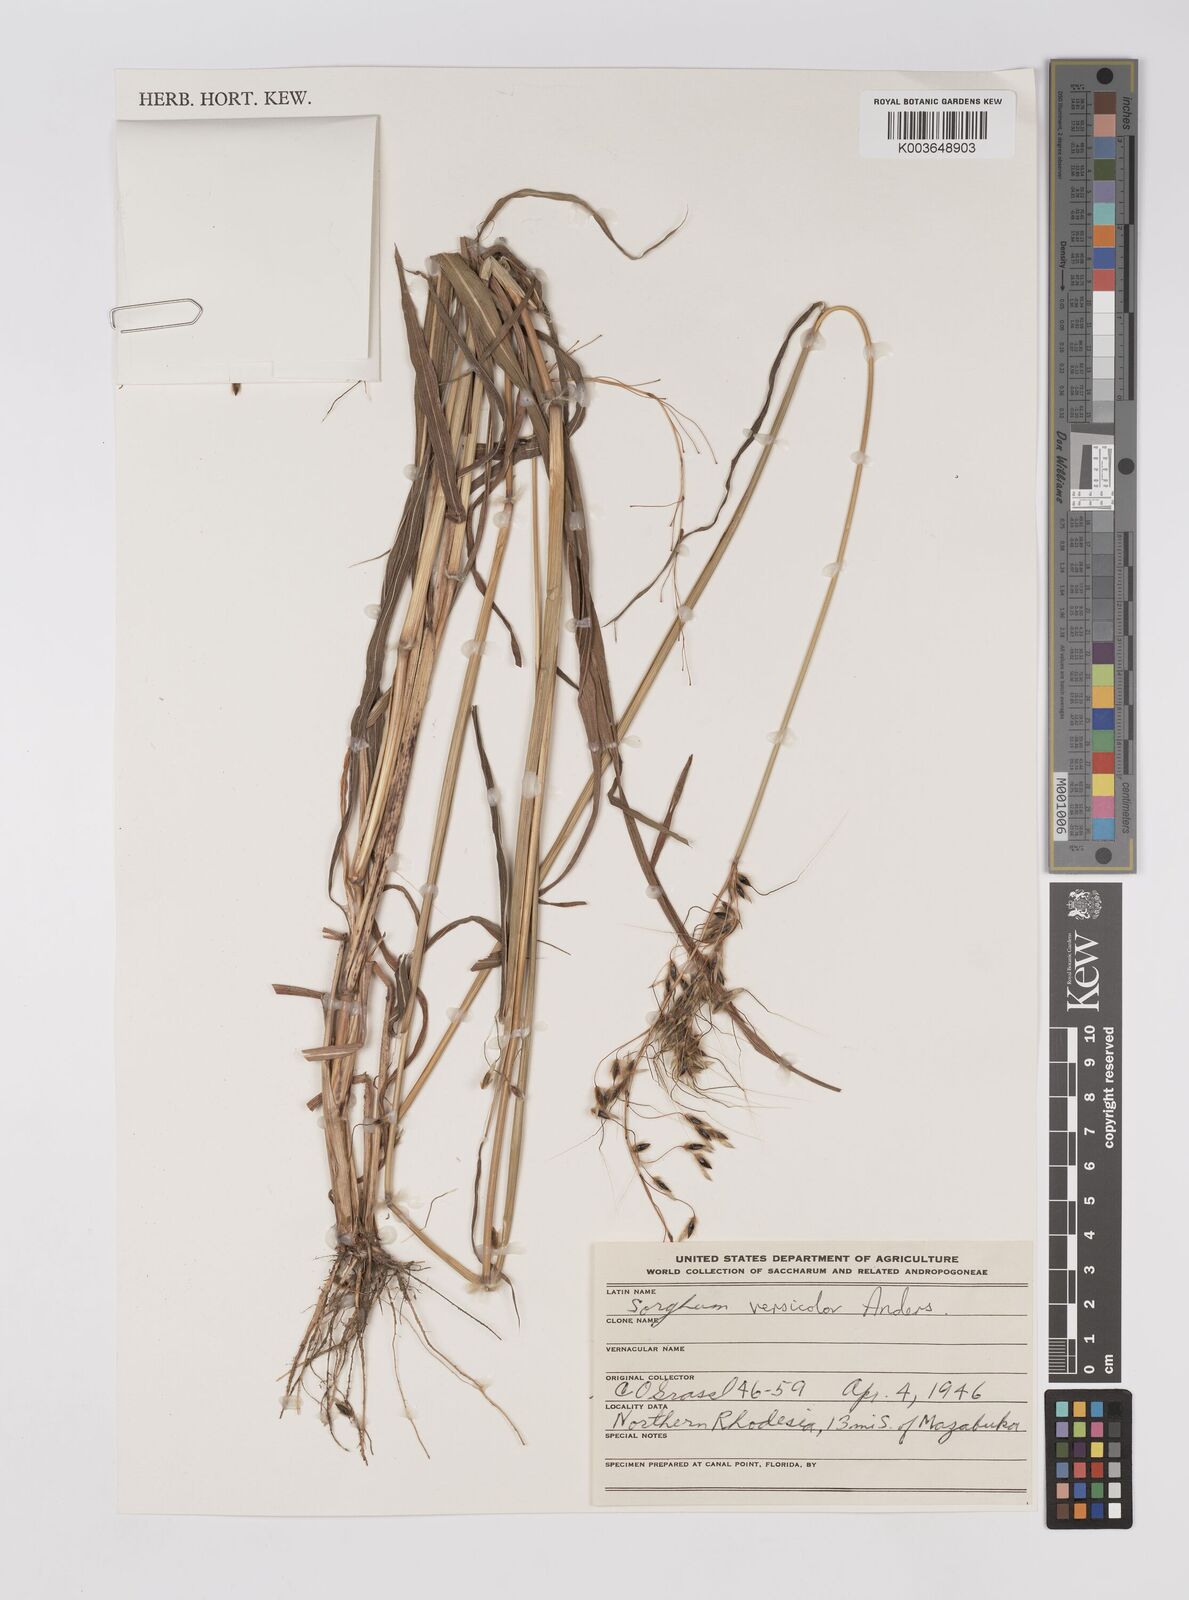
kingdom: Plantae
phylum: Tracheophyta
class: Liliopsida
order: Poales
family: Poaceae
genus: Sarga
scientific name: Sarga versicolor
